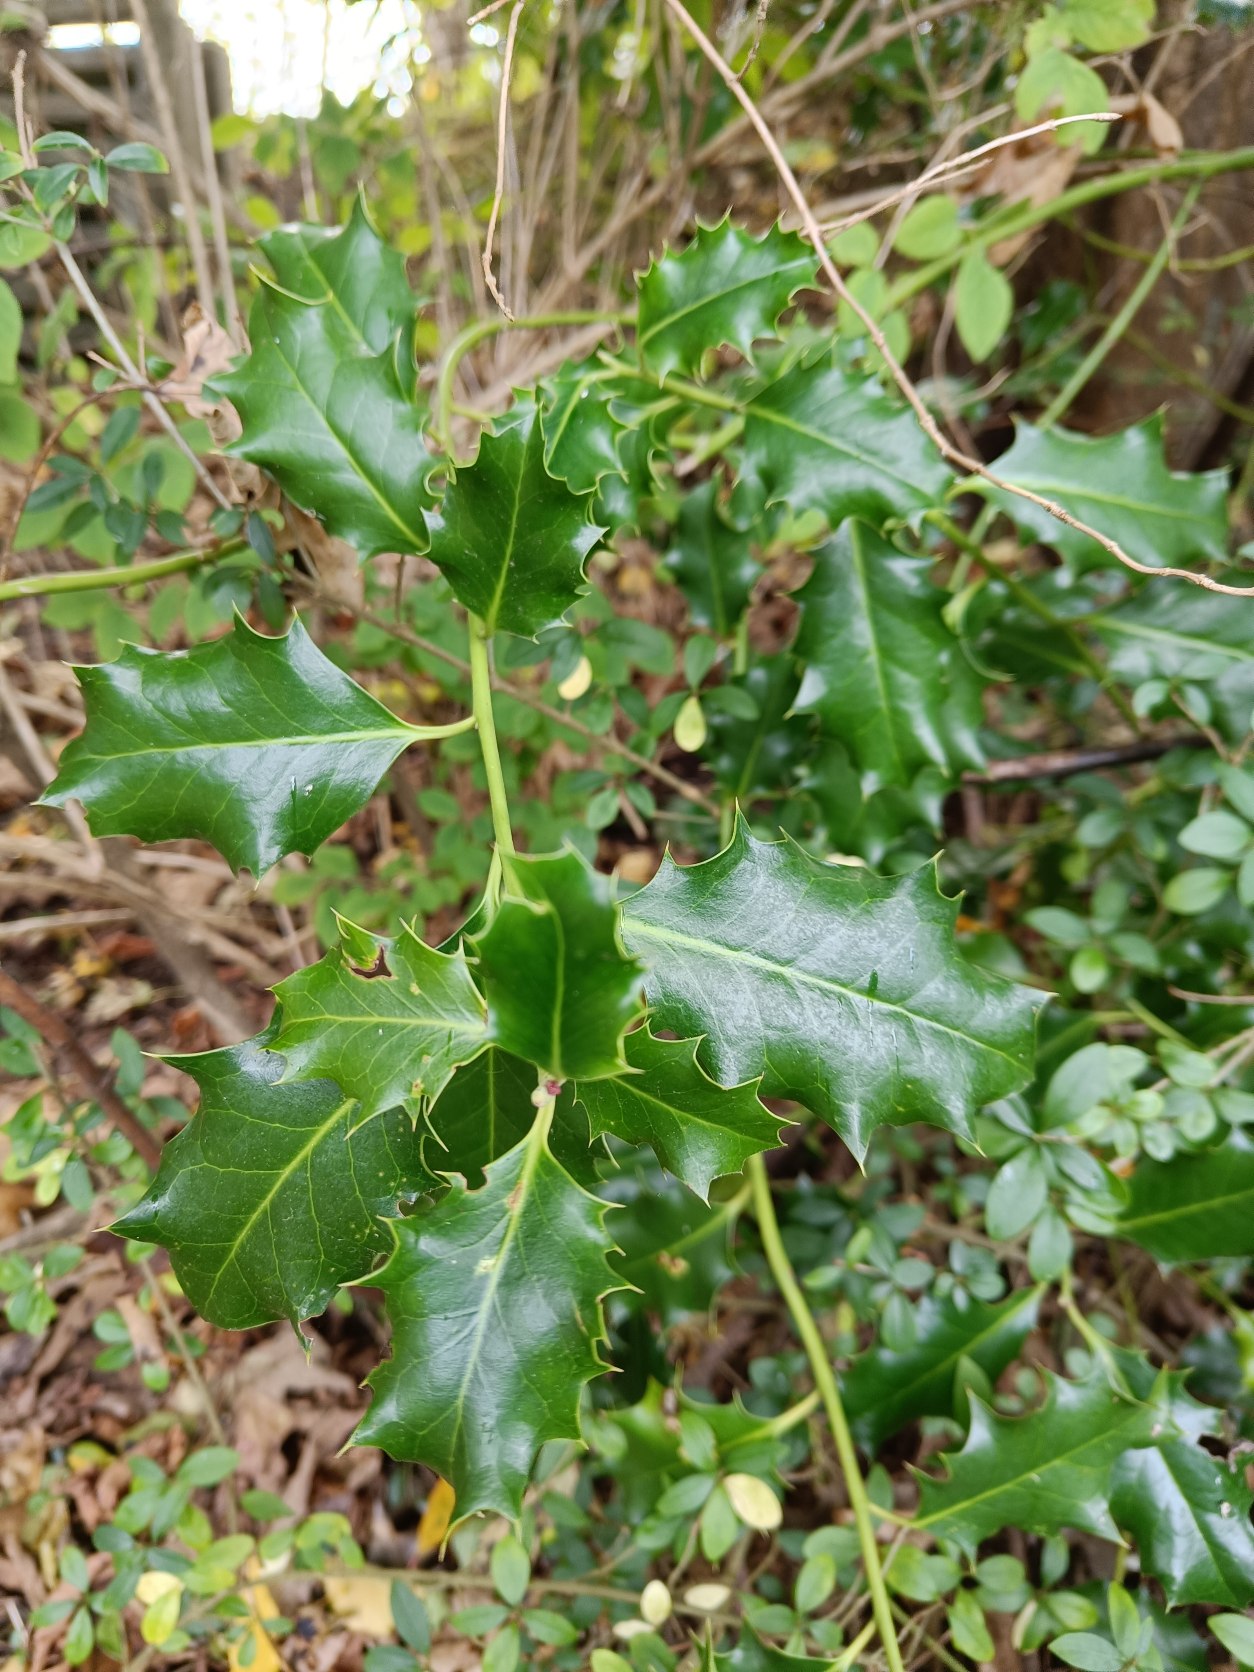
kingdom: Plantae
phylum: Tracheophyta
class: Magnoliopsida
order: Aquifoliales
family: Aquifoliaceae
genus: Ilex
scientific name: Ilex aquifolium
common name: Kristtorn
